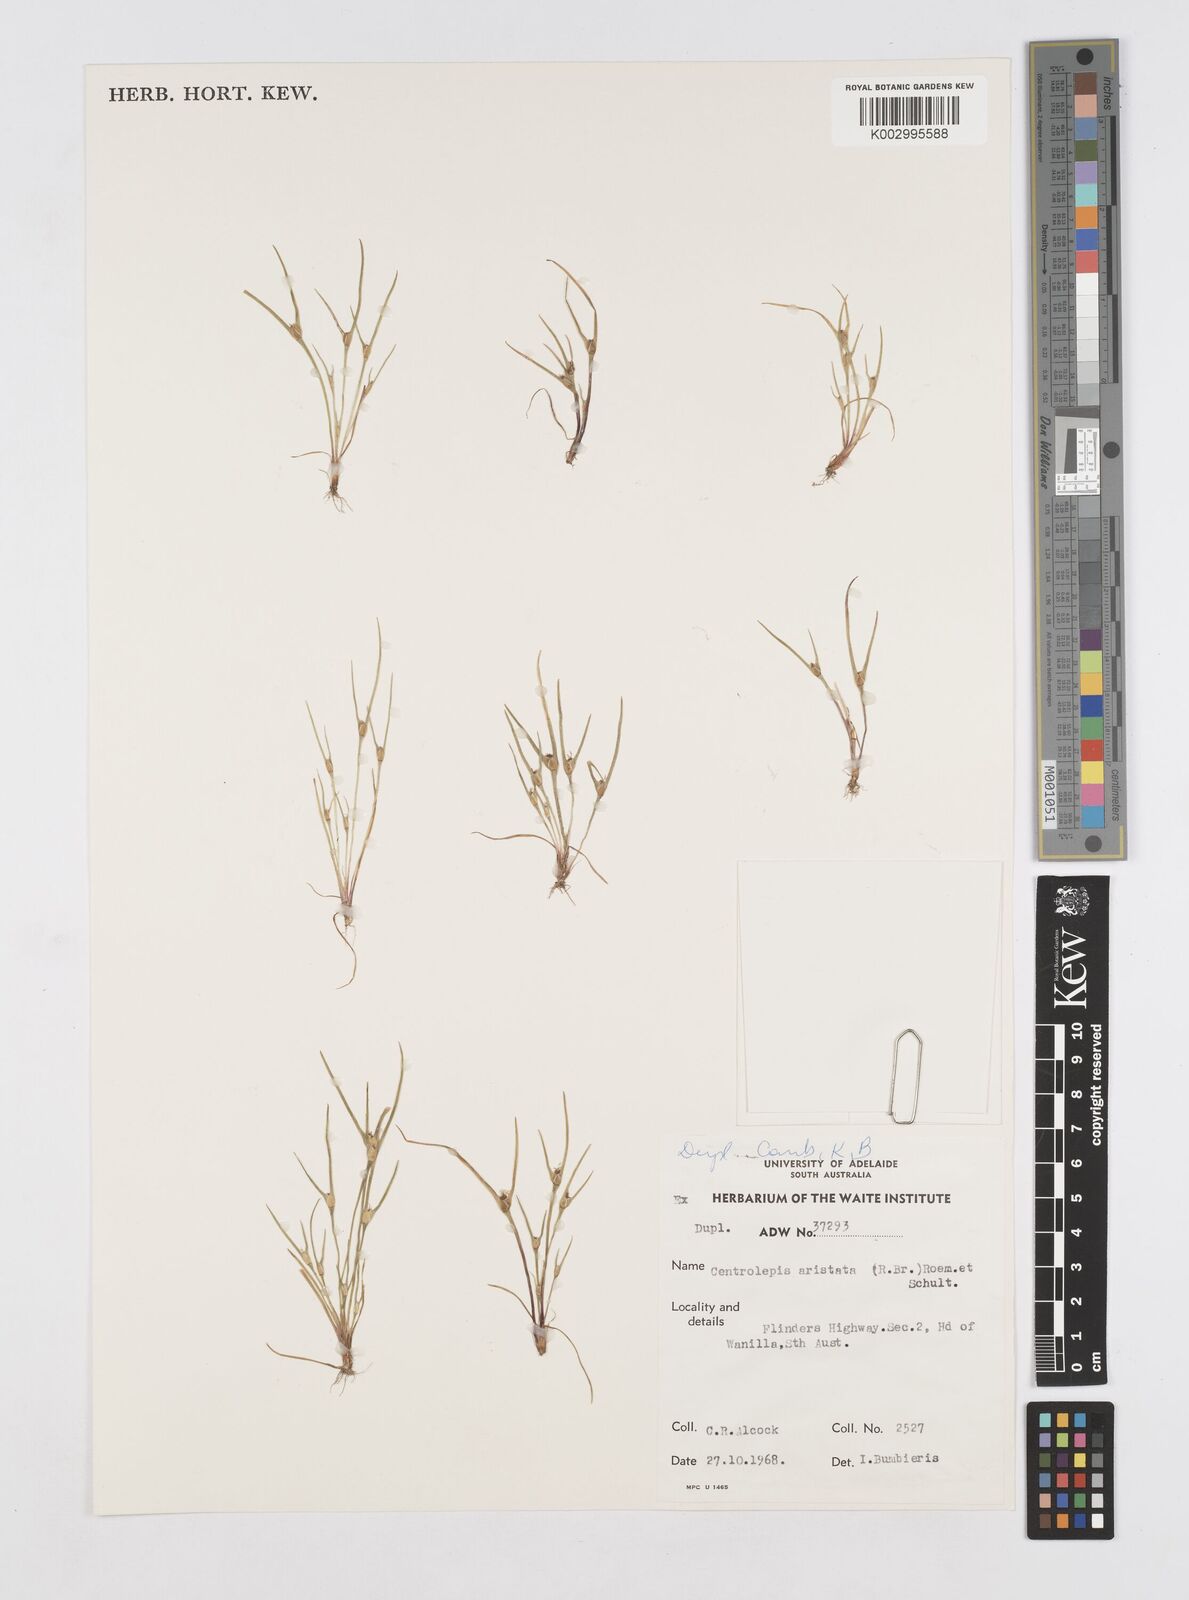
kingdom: Plantae
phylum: Tracheophyta
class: Liliopsida
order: Poales
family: Restionaceae
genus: Centrolepis
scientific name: Centrolepis aristata
